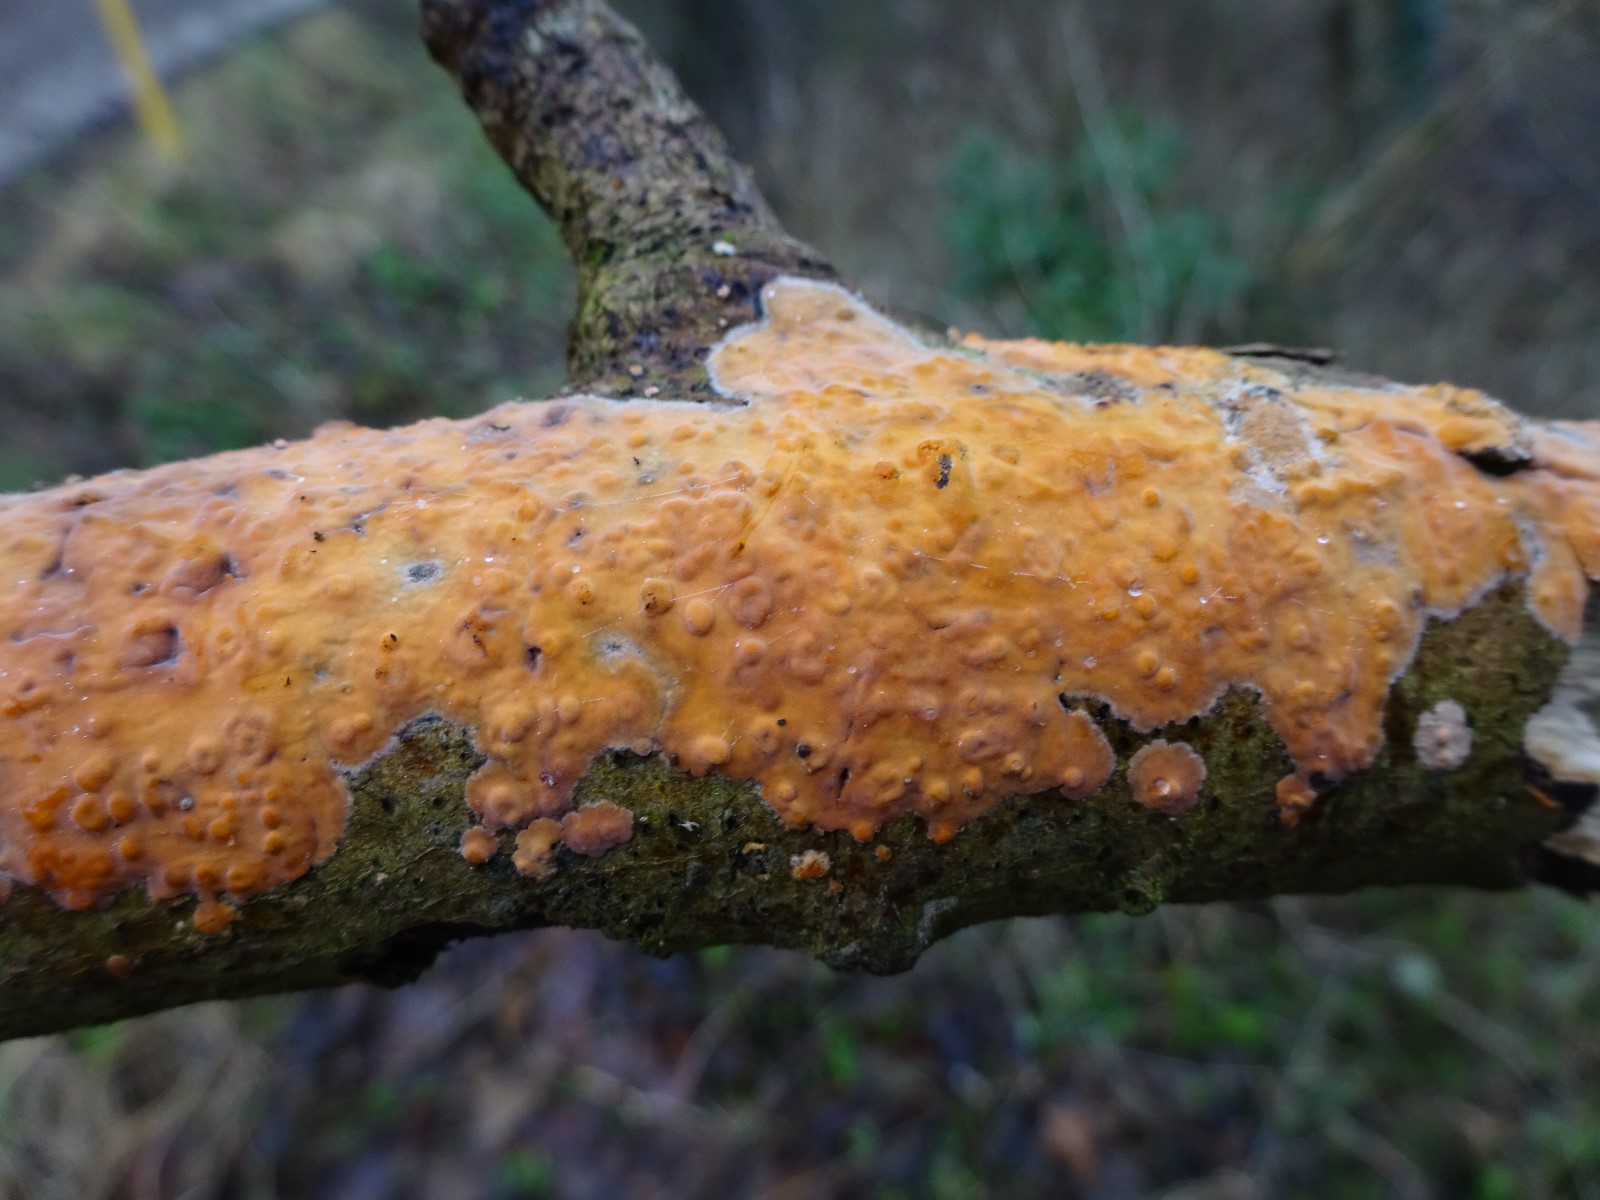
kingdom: Fungi
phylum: Basidiomycota
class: Agaricomycetes
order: Russulales
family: Peniophoraceae
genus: Peniophora
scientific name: Peniophora incarnata
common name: laksefarvet voksskind
